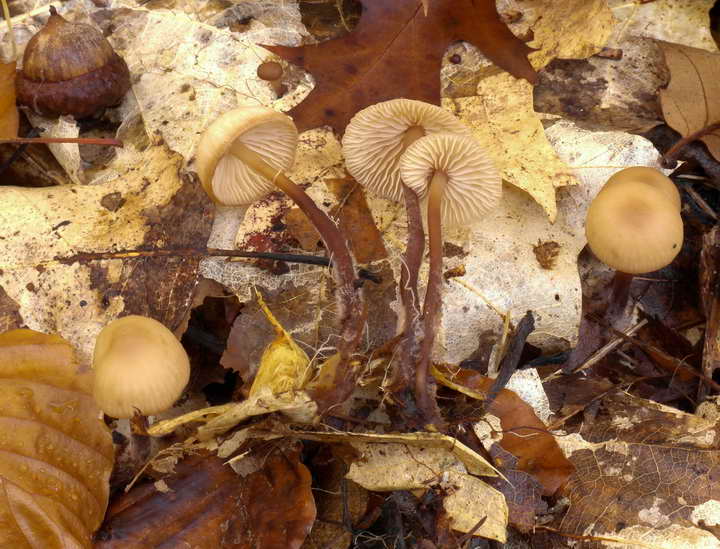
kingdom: Fungi
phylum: Basidiomycota
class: Agaricomycetes
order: Agaricales
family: Omphalotaceae
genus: Mycetinis
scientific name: Mycetinis querceus
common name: ege-løghat
